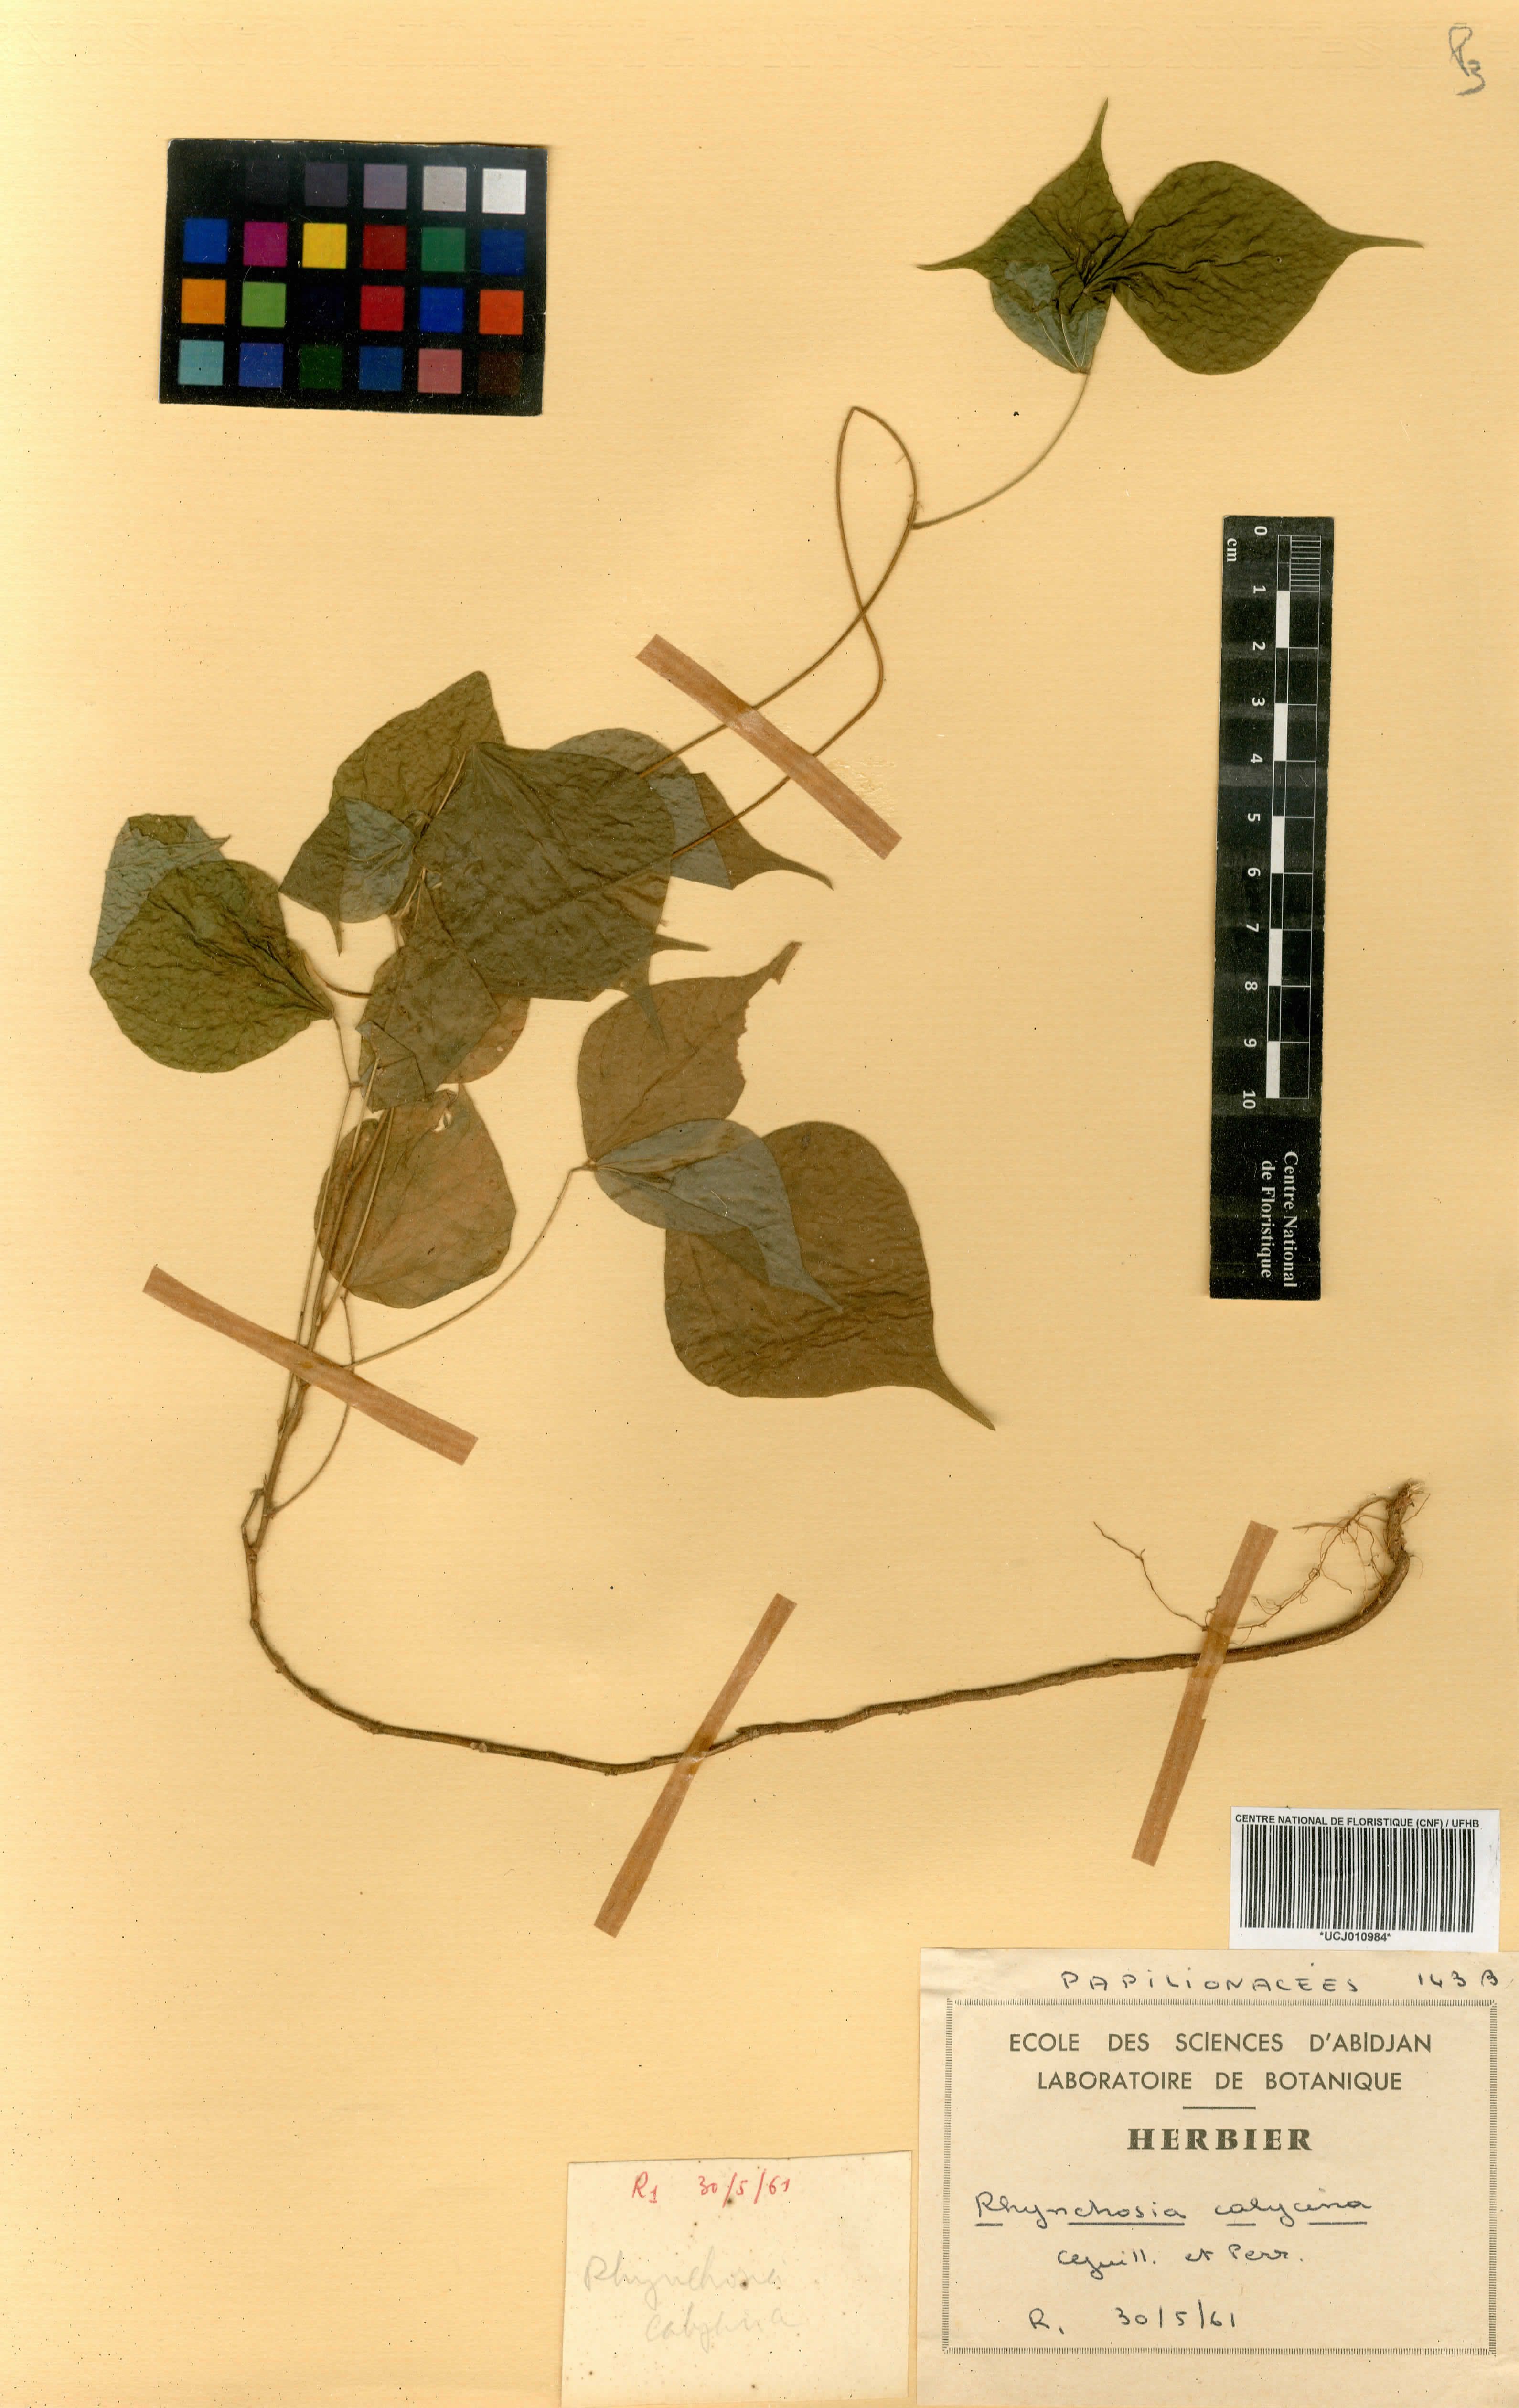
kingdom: Plantae
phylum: Tracheophyta
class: Magnoliopsida
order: Fabales
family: Fabaceae
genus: Rhynchosia
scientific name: Rhynchosia calycina
